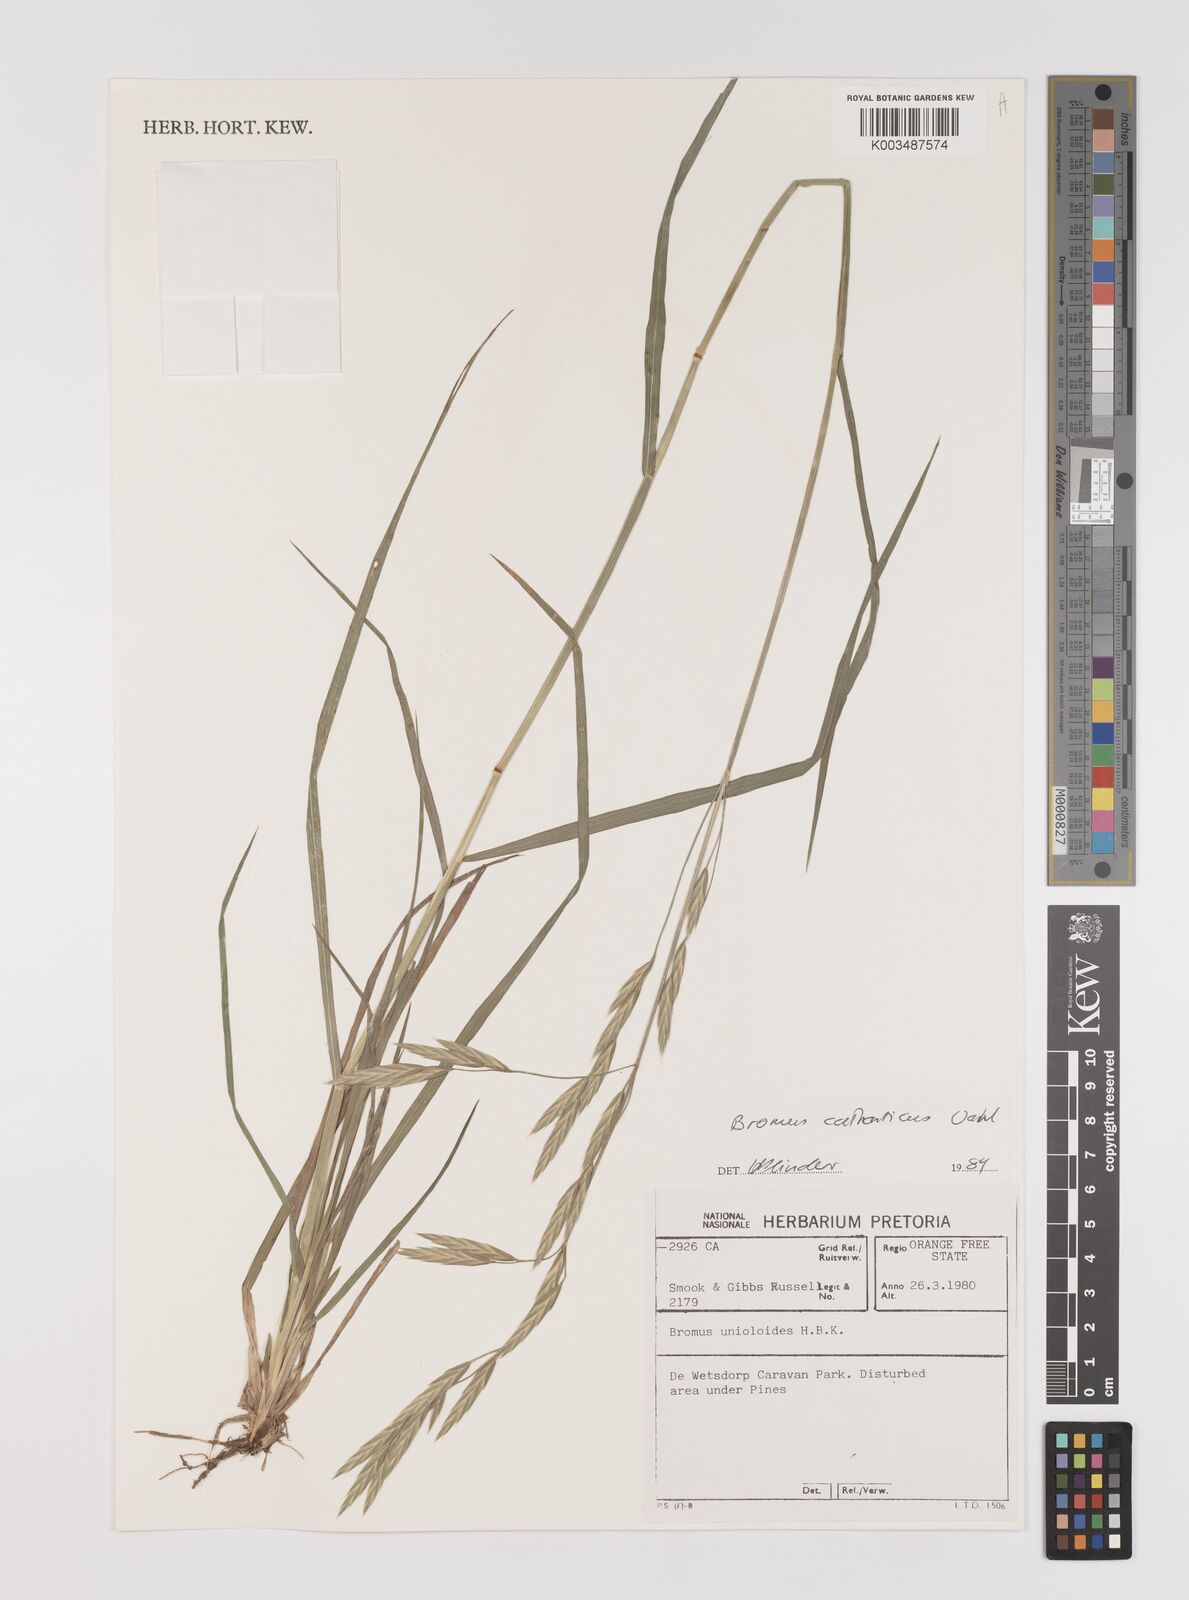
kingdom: Plantae
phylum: Tracheophyta
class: Liliopsida
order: Poales
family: Poaceae
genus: Bromus
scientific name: Bromus catharticus
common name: Rescuegrass
